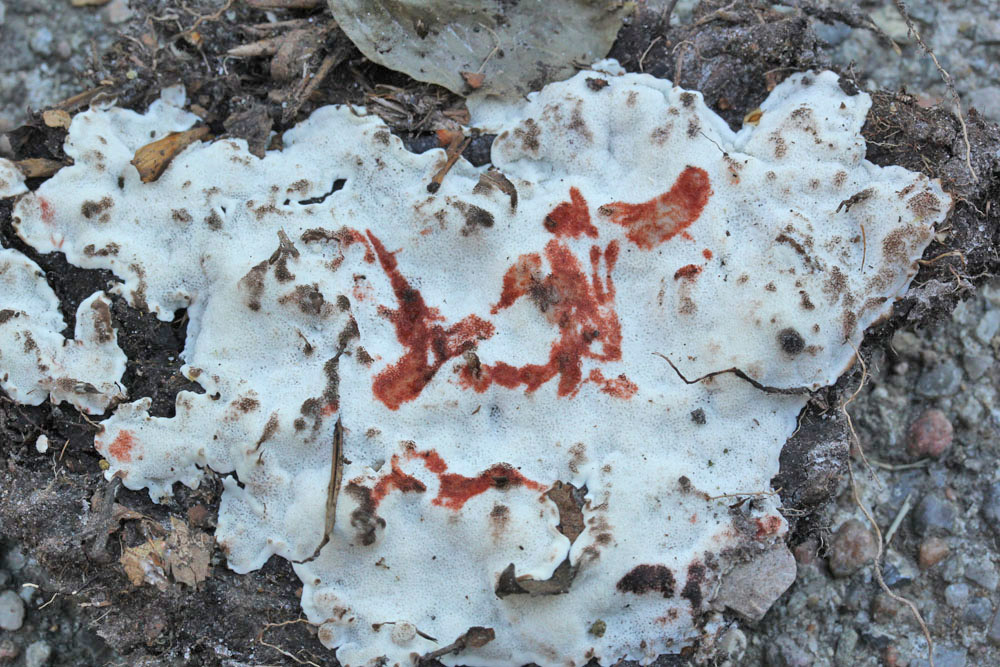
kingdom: Fungi
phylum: Basidiomycota
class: Agaricomycetes
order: Polyporales
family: Meripilaceae
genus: Rigidoporus
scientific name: Rigidoporus sanguinolentus
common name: blod-skorpeporesvamp
